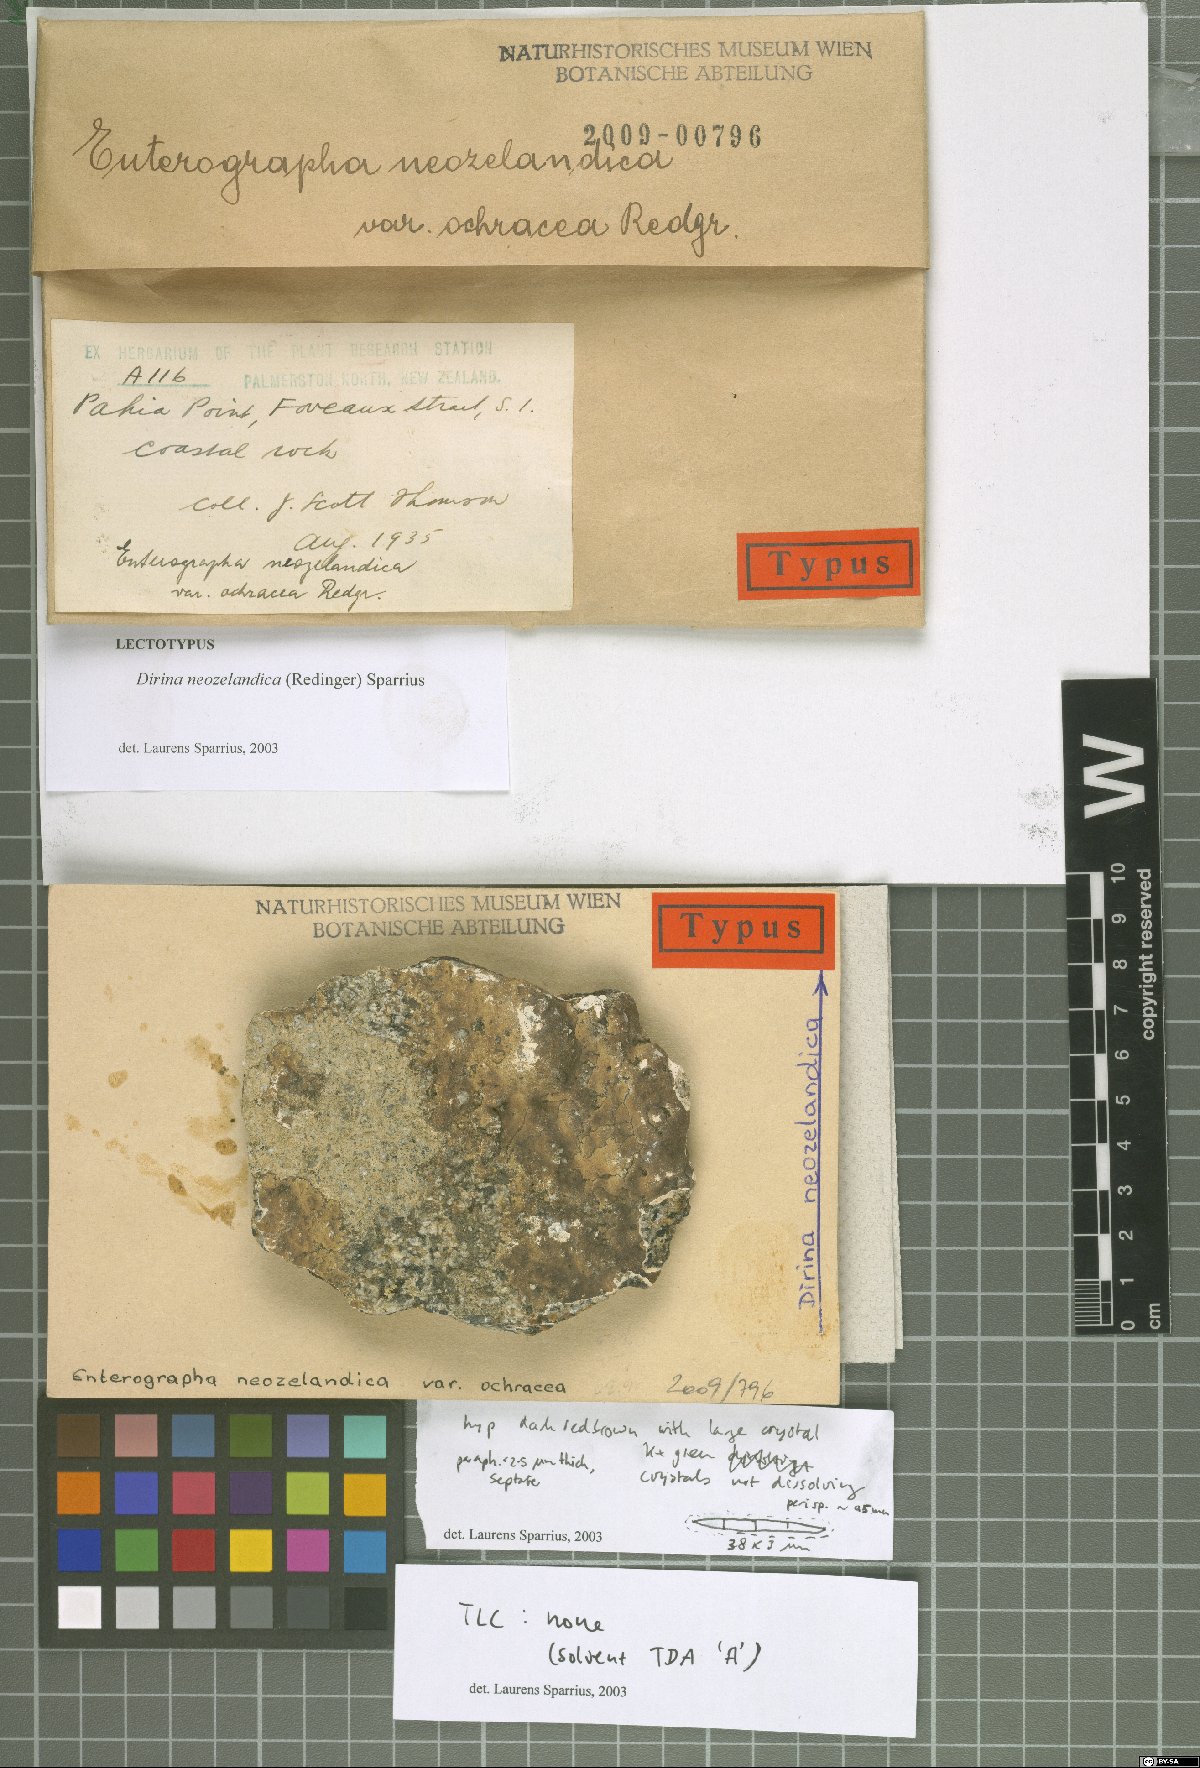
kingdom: Fungi
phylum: Ascomycota
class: Arthoniomycetes
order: Arthoniales
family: Roccellaceae
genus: Dirina
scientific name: Dirina neozelandica
